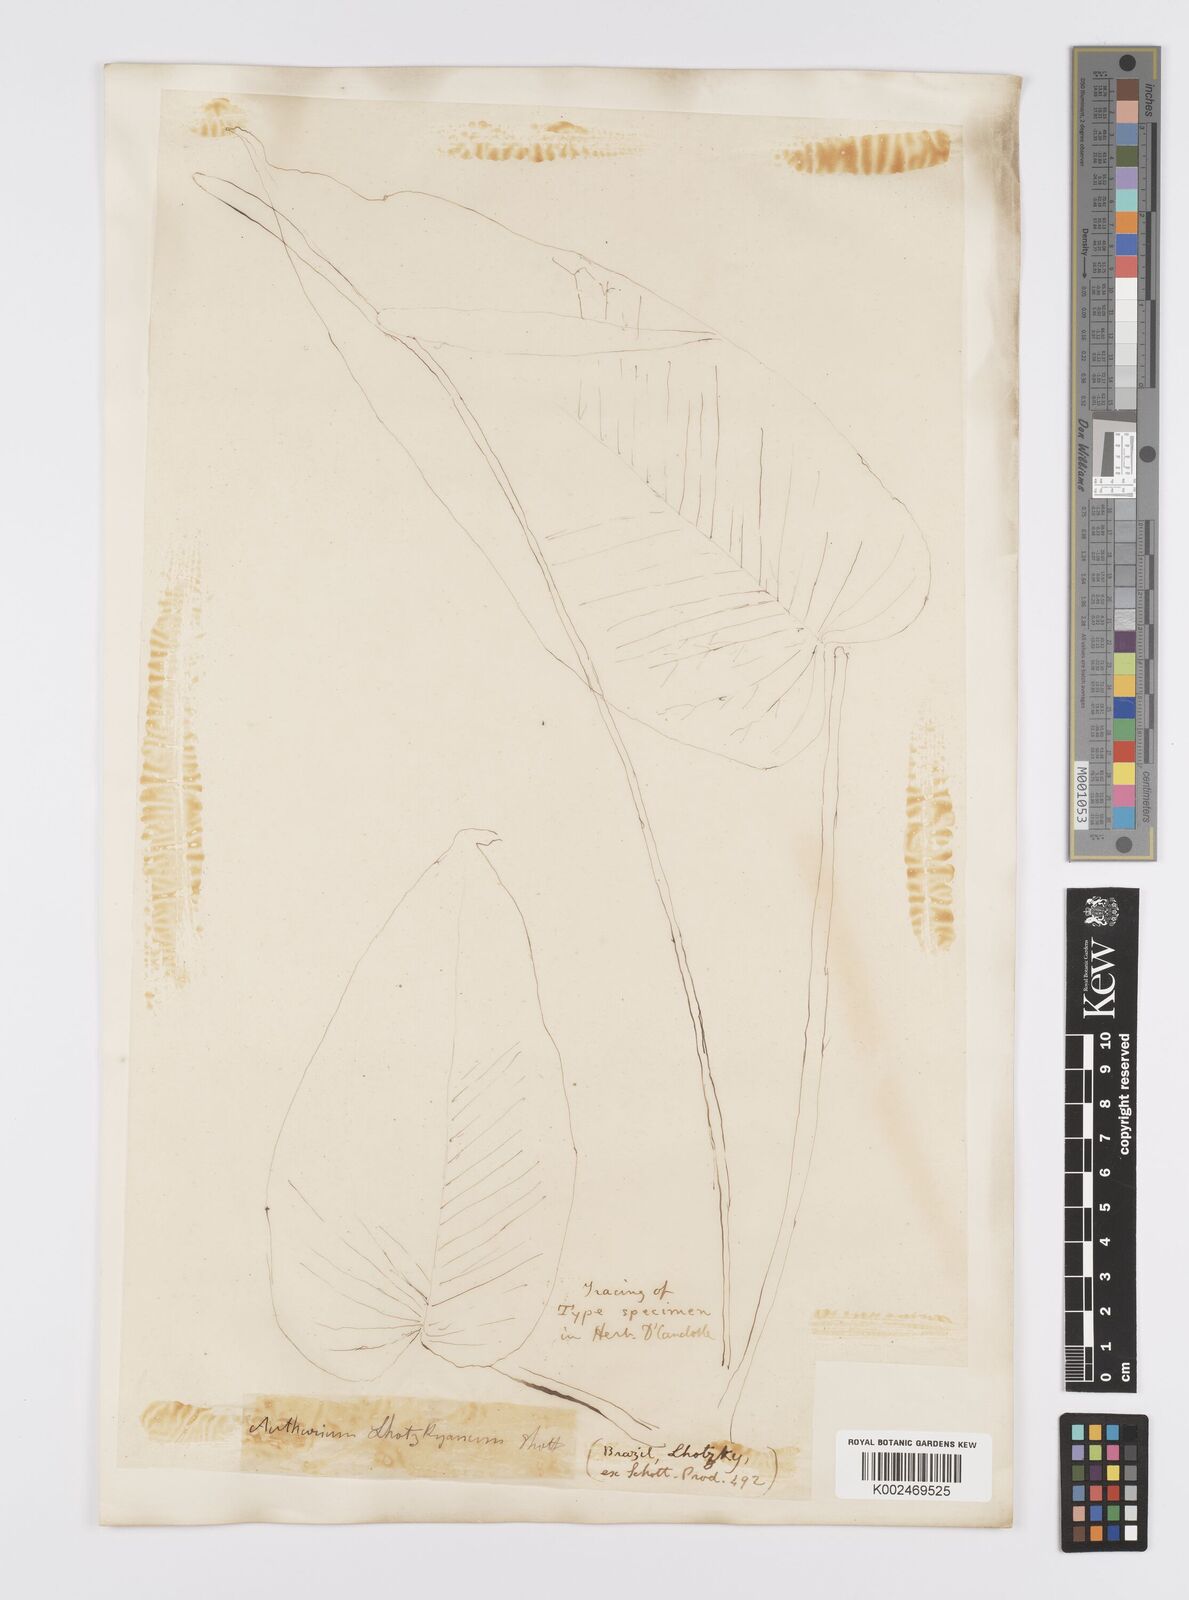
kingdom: Plantae
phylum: Tracheophyta
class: Liliopsida
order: Alismatales
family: Araceae
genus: Anthurium
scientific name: Anthurium augustinum
